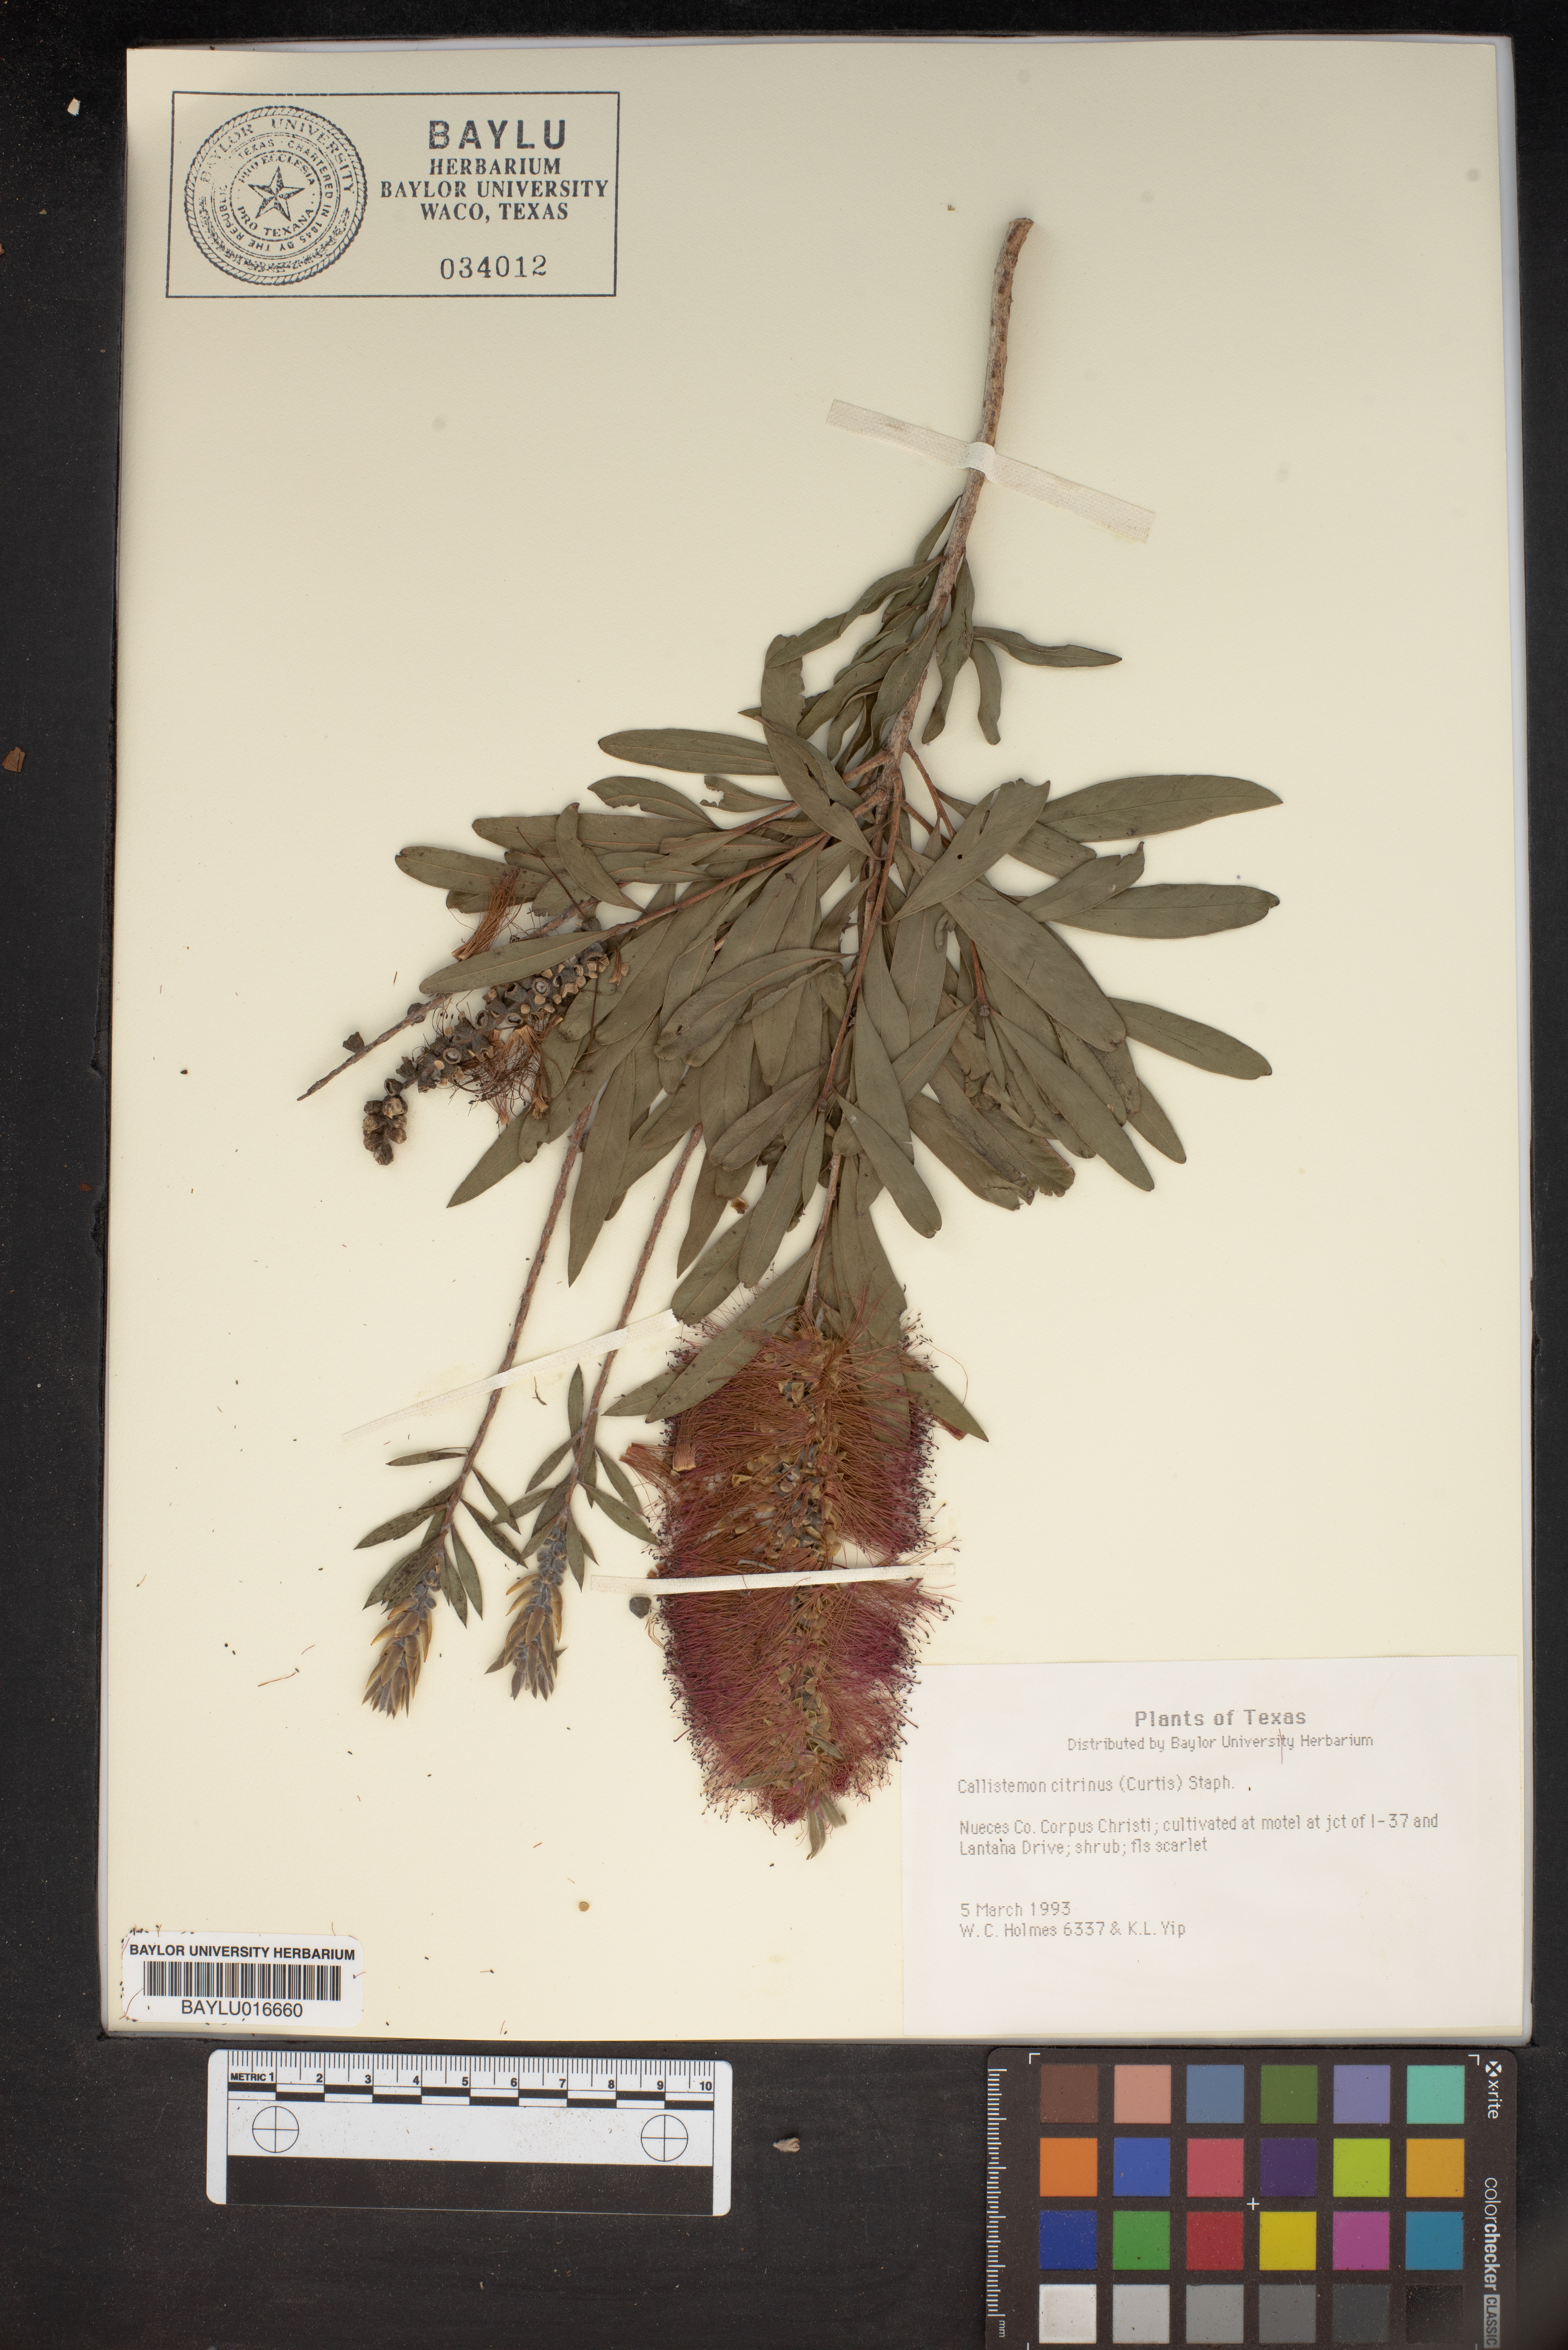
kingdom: Plantae
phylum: Tracheophyta
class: Magnoliopsida
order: Myrtales
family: Myrtaceae
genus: Callistemon
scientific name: Callistemon citrinus
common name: Crimson bottlebrush
